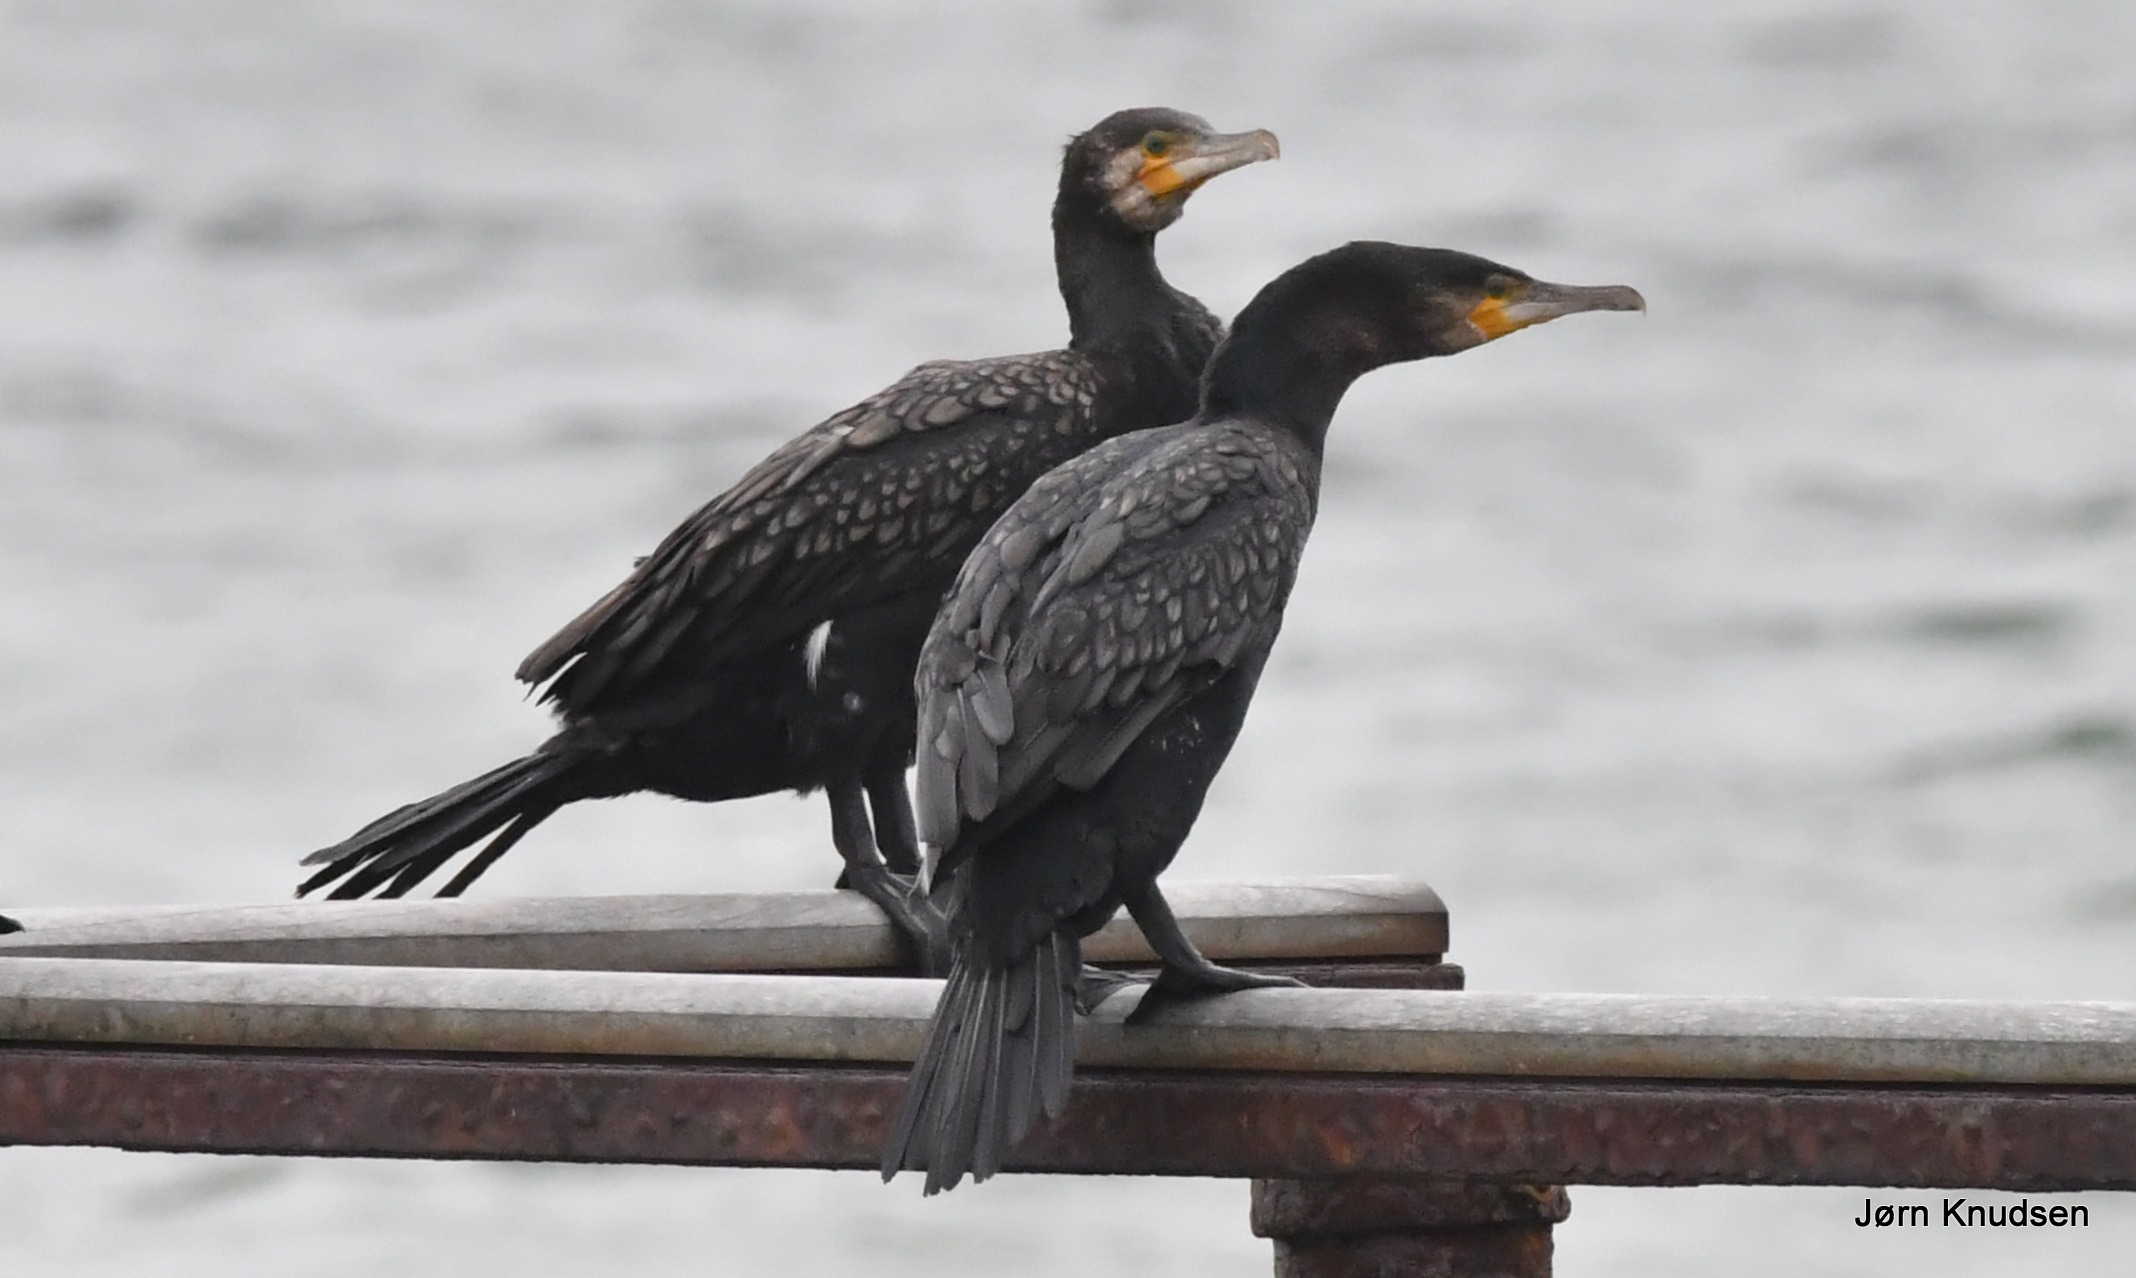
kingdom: Animalia
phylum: Chordata
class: Aves
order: Suliformes
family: Phalacrocoracidae
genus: Phalacrocorax
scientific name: Phalacrocorax carbo
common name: Skarv
